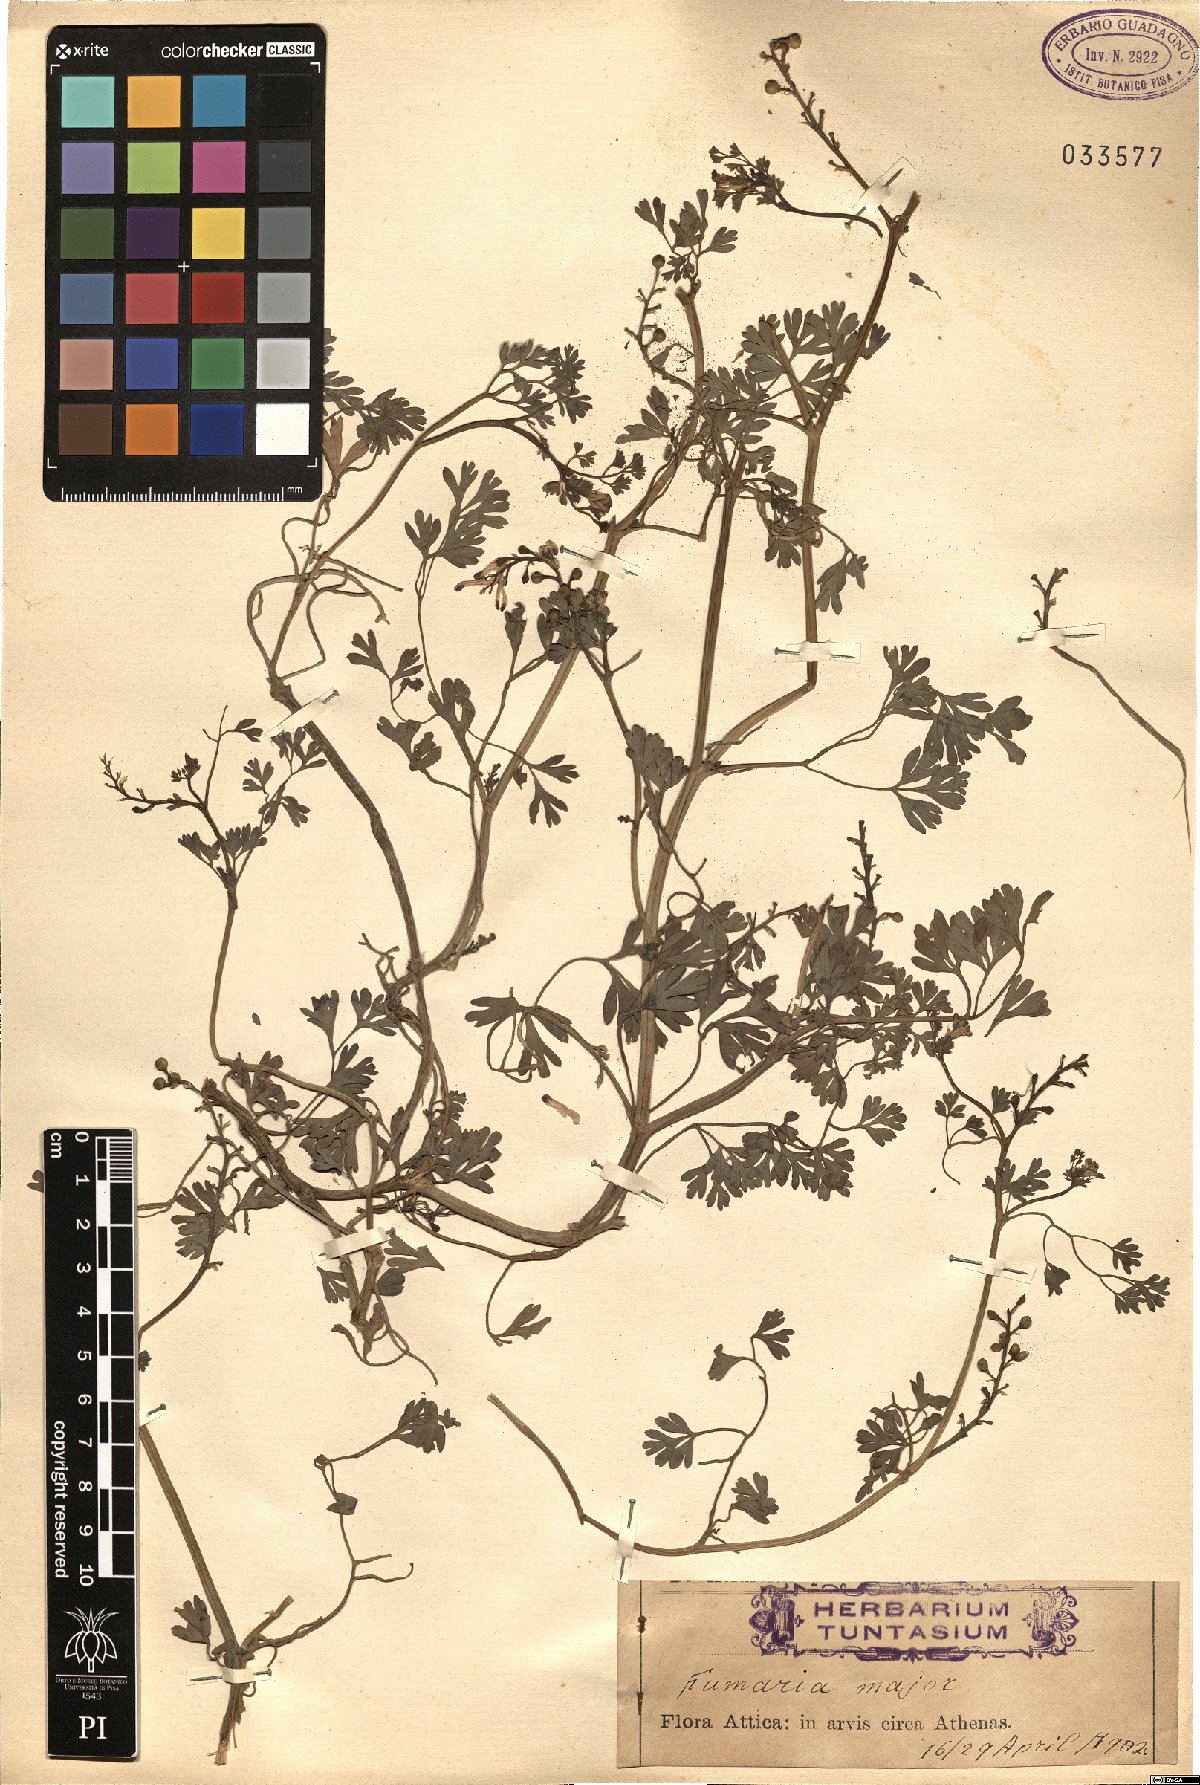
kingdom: Plantae
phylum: Tracheophyta
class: Magnoliopsida
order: Ranunculales
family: Papaveraceae
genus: Fumaria
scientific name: Fumaria barnolae
